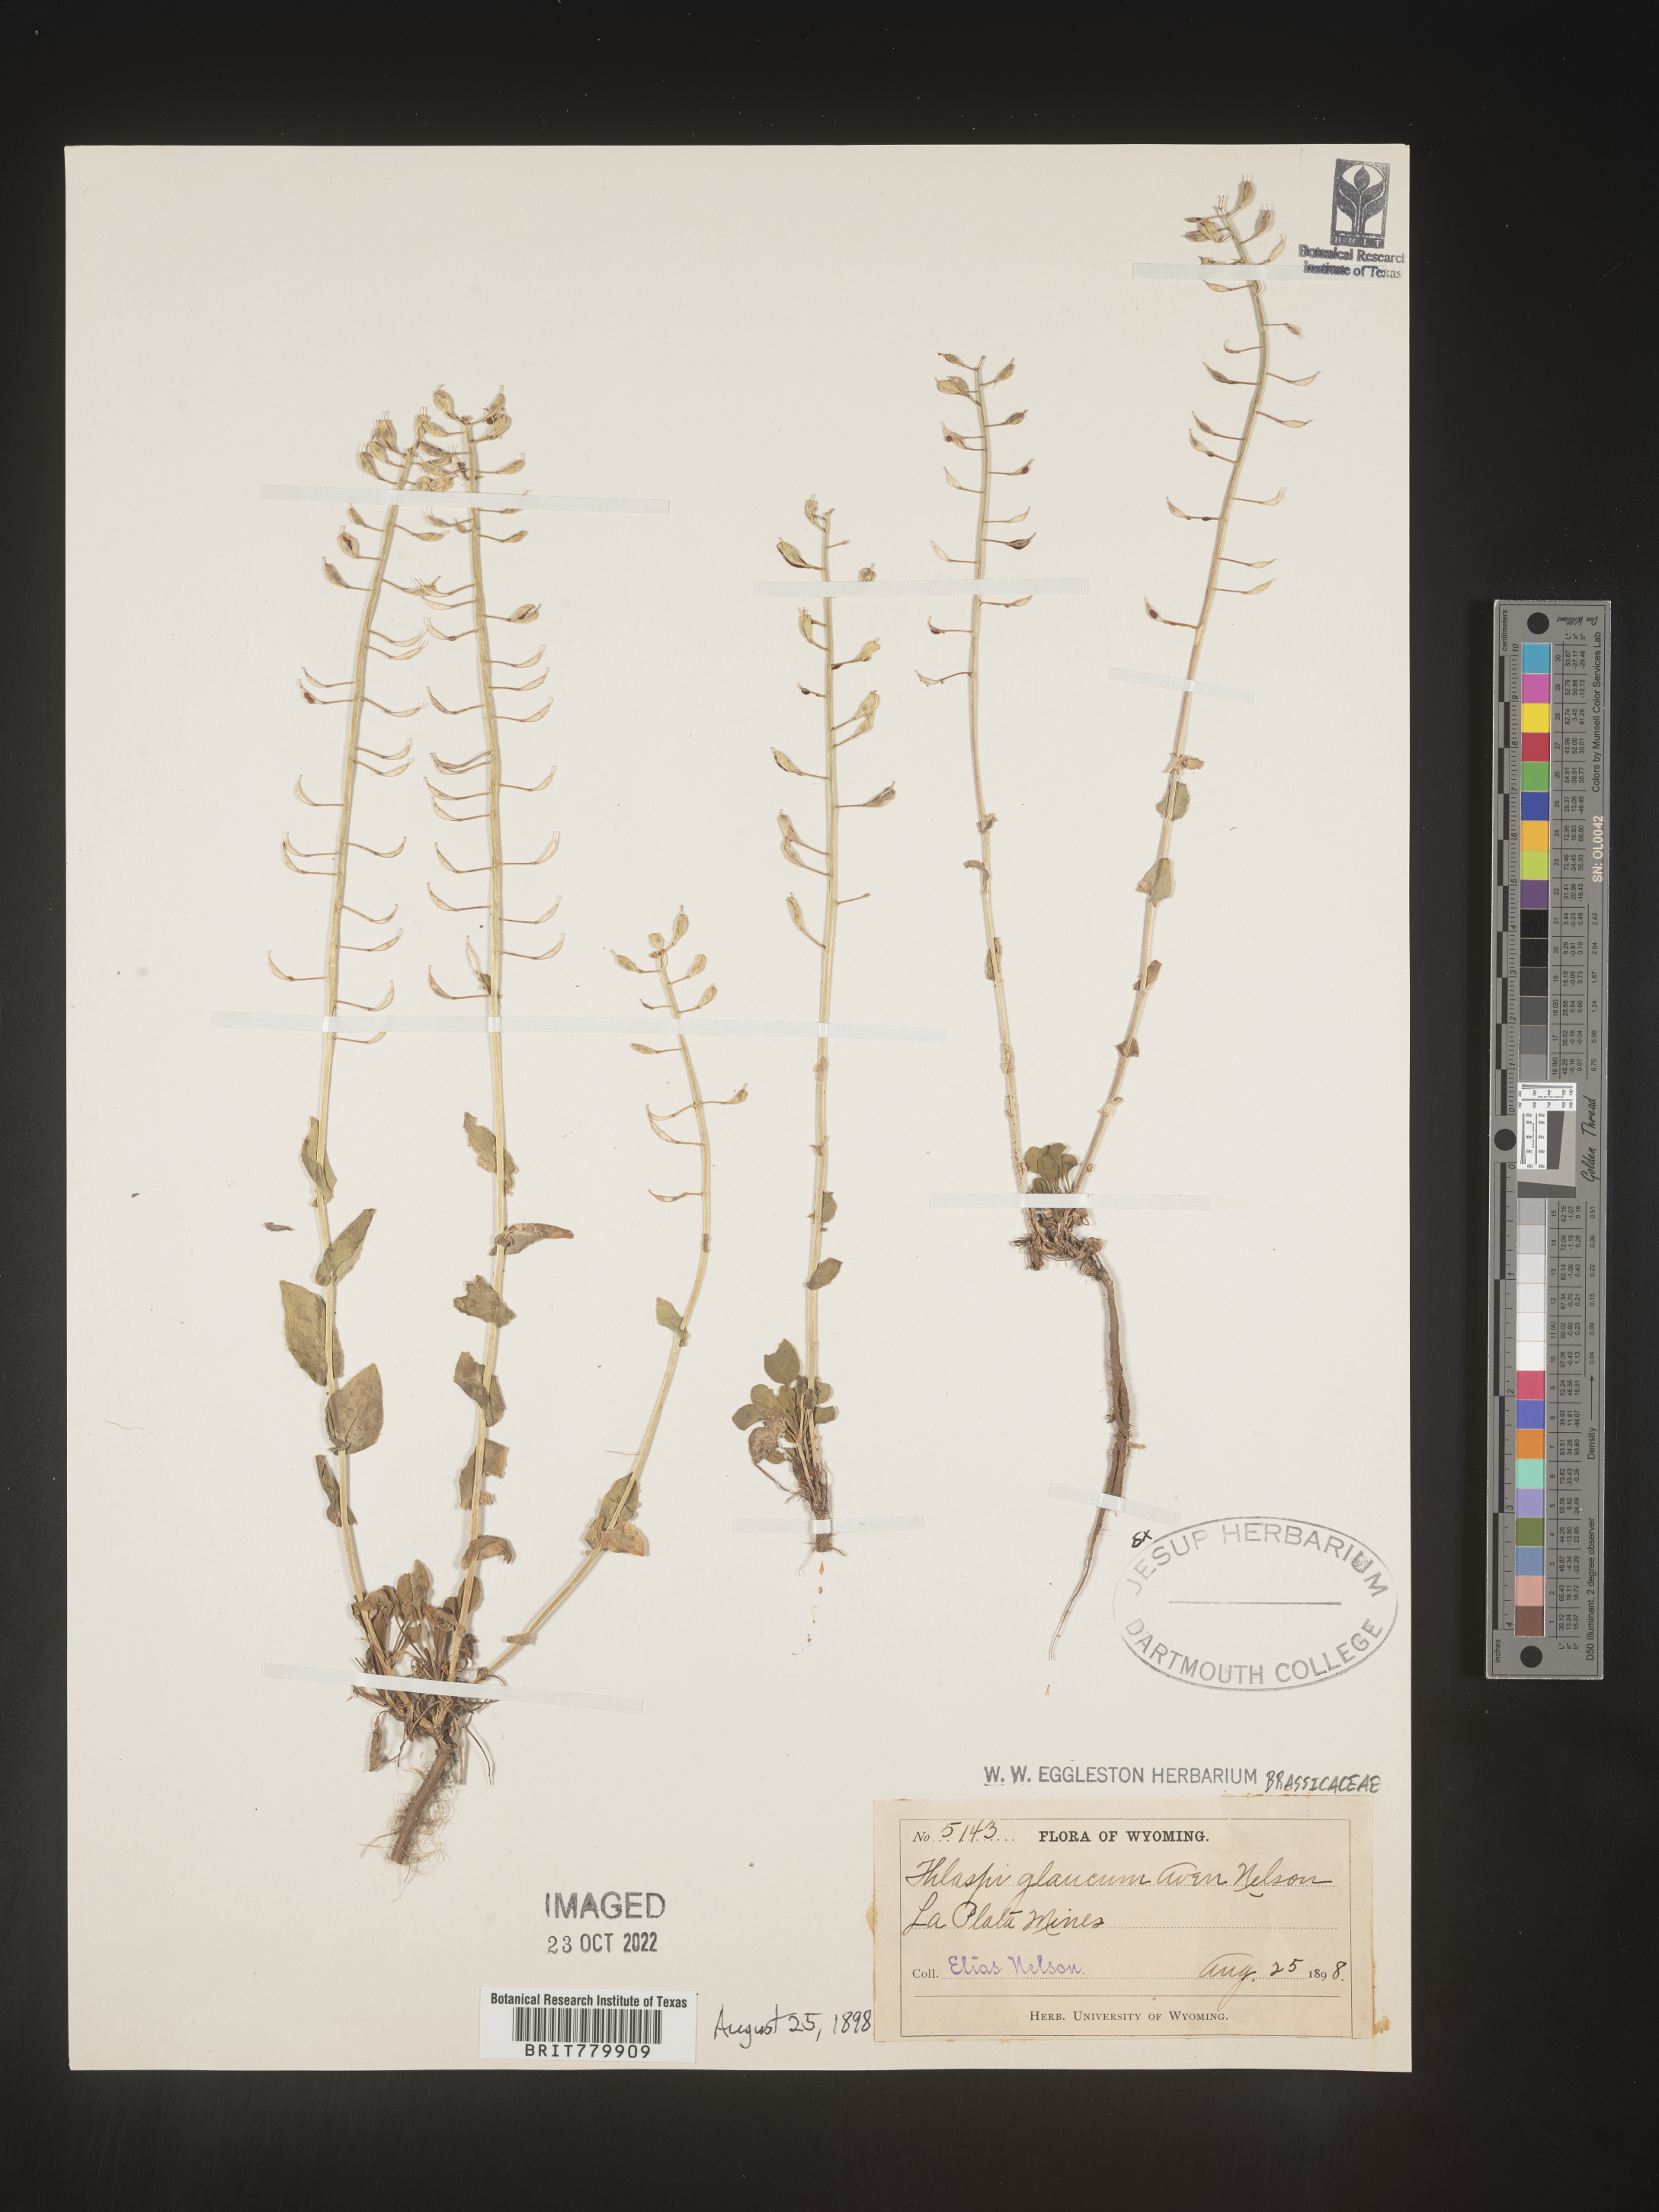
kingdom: Plantae
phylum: Tracheophyta
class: Magnoliopsida
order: Brassicales
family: Brassicaceae
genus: Thlaspi
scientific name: Thlaspi
